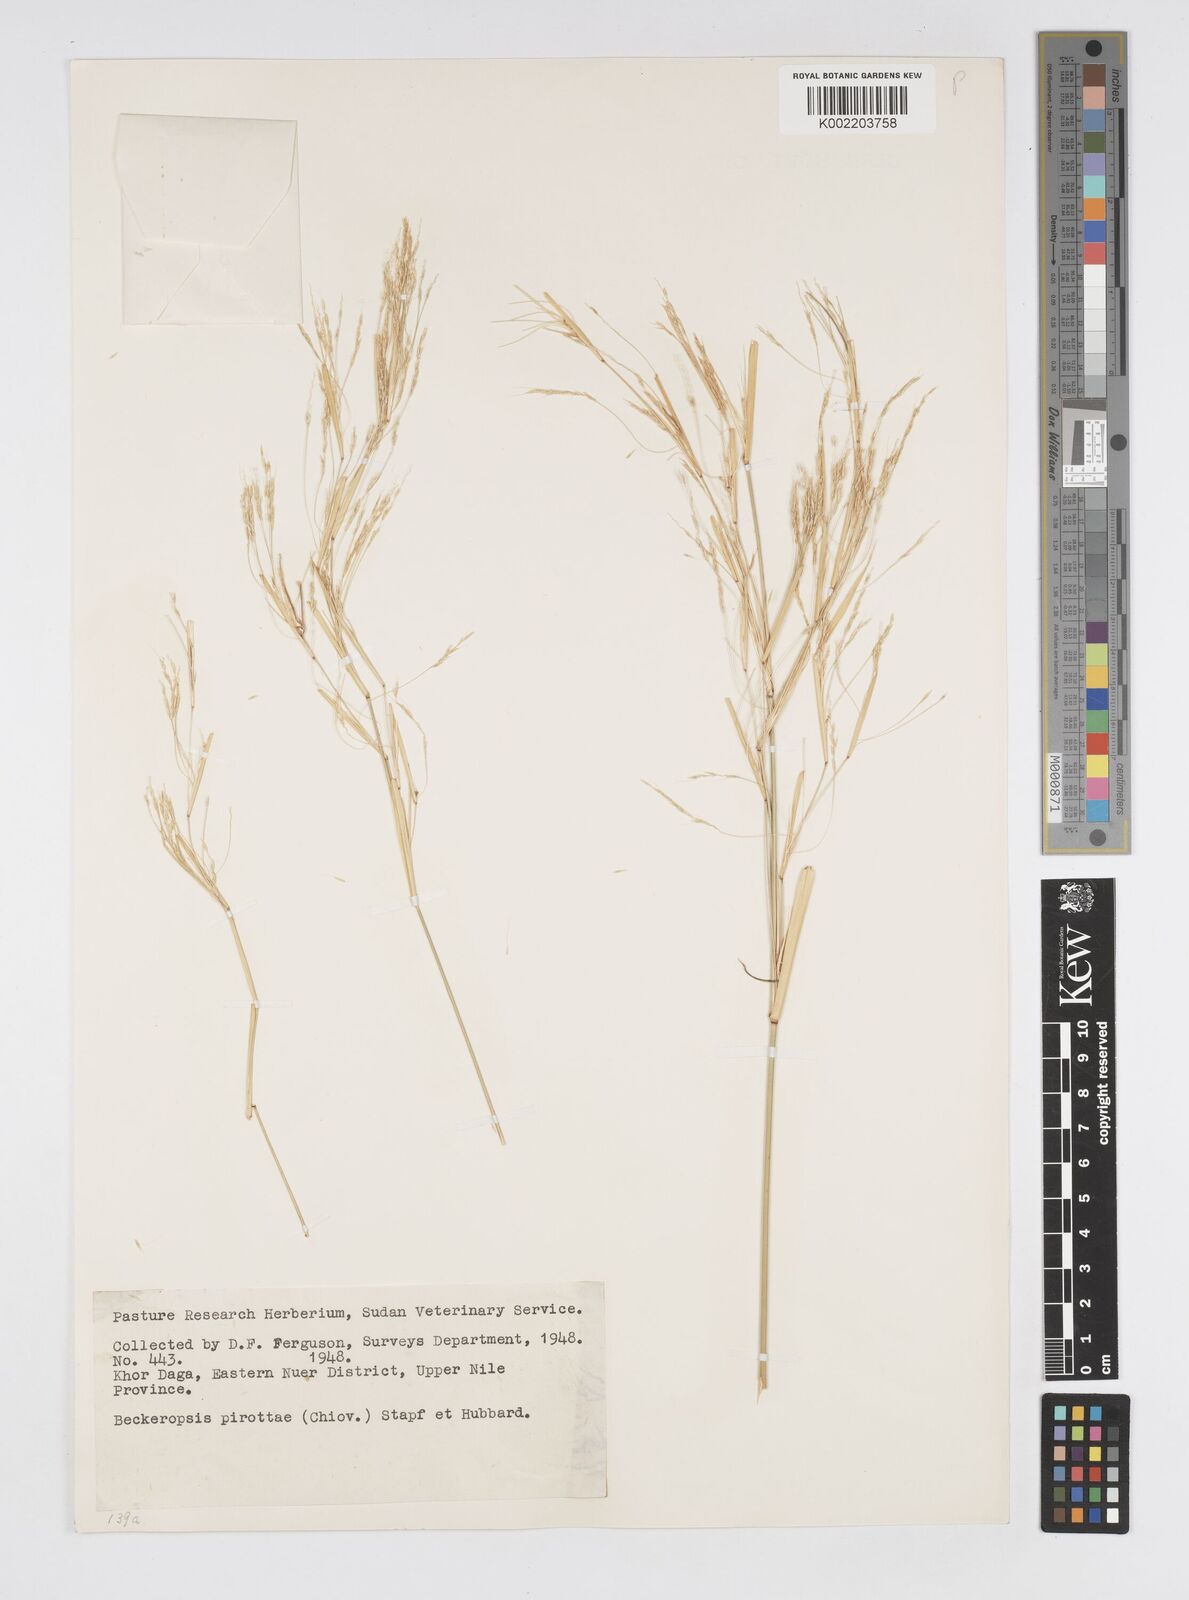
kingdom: Plantae
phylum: Tracheophyta
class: Liliopsida
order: Poales
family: Poaceae
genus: Cenchrus
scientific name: Cenchrus pirottae
